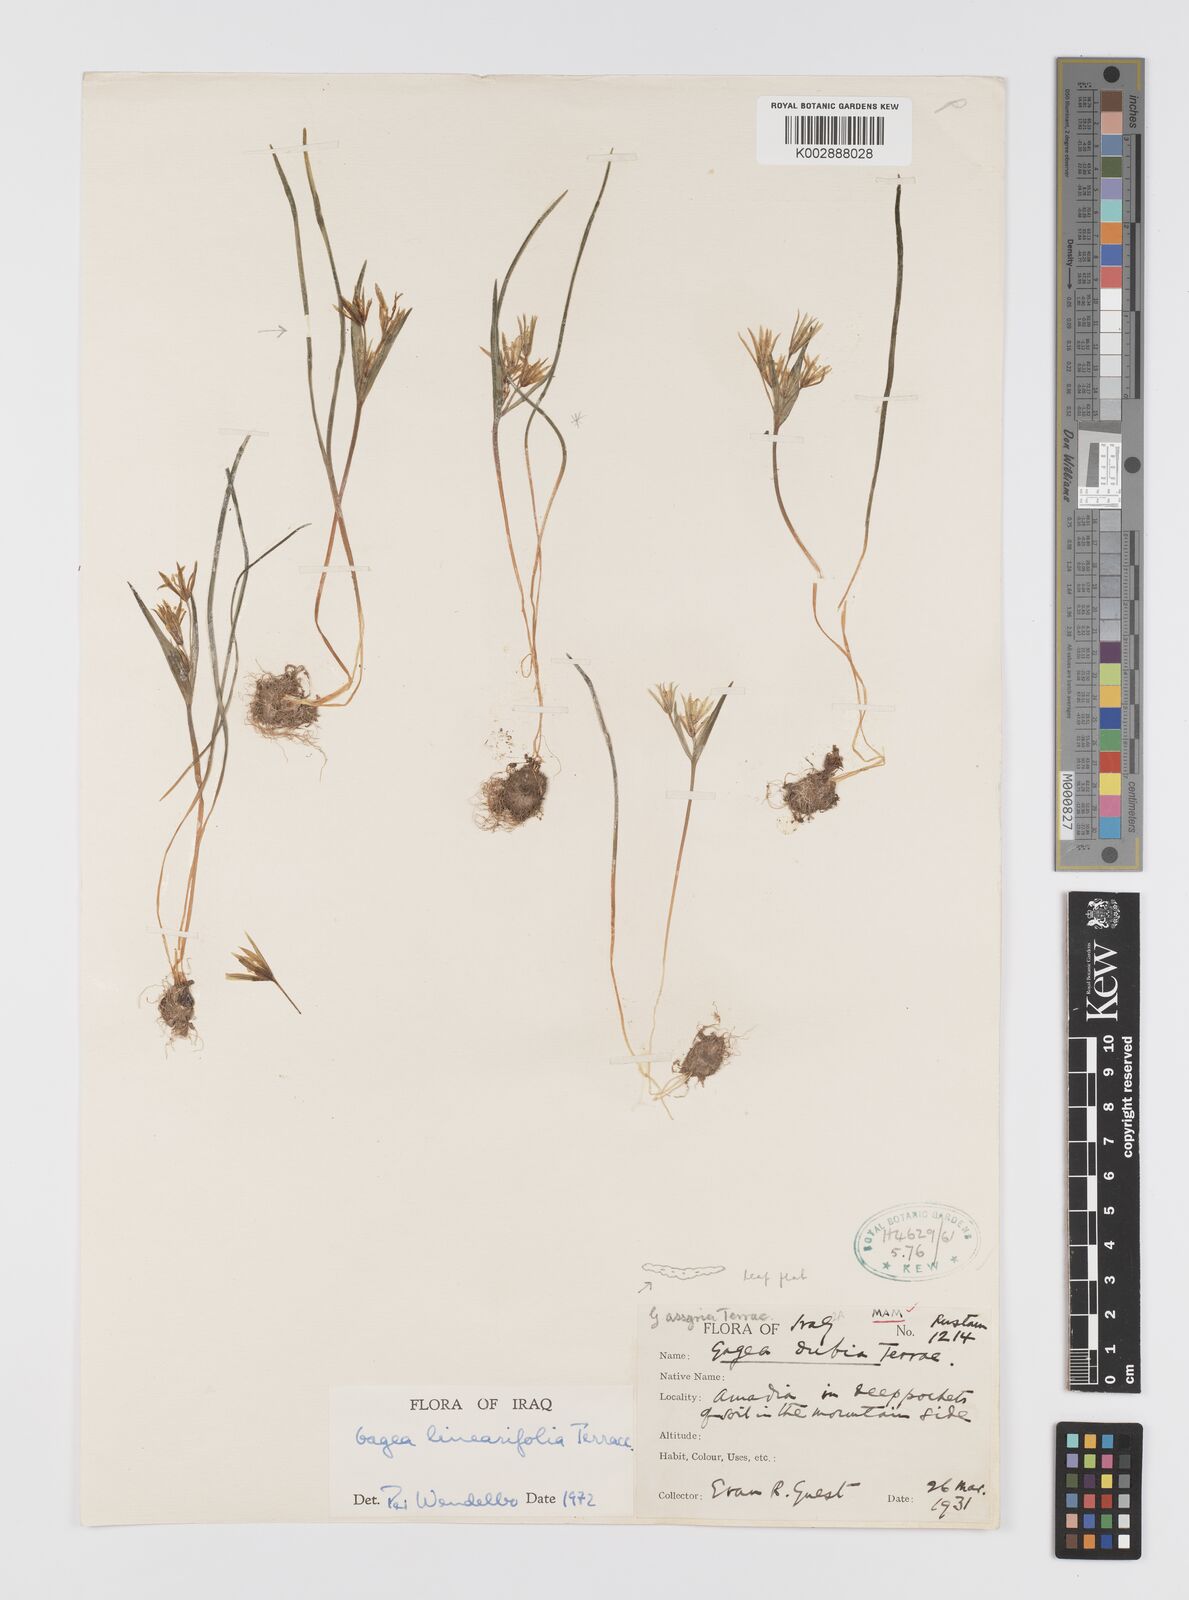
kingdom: Plantae
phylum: Tracheophyta
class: Liliopsida
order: Liliales
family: Liliaceae
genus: Gagea
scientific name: Gagea luteoides
